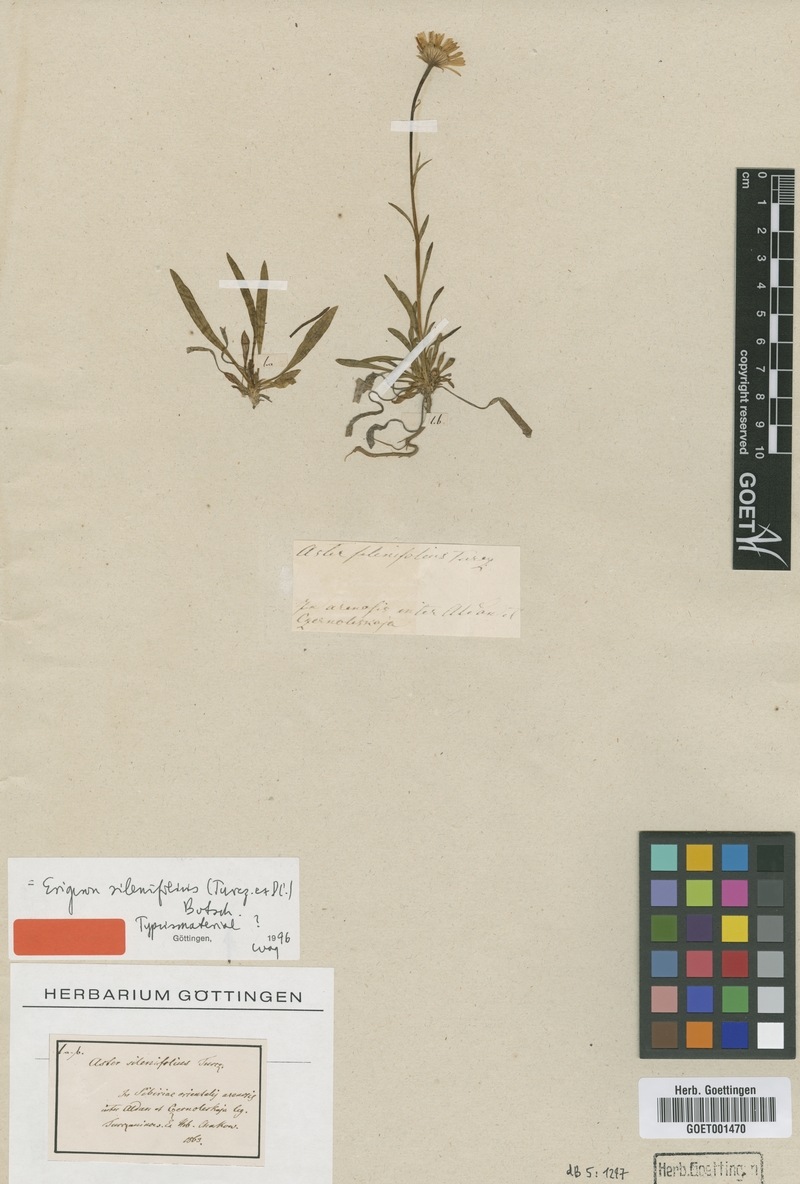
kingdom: Plantae
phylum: Tracheophyta
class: Magnoliopsida
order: Asterales
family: Asteraceae
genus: Erigeron
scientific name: Erigeron silenifolius
